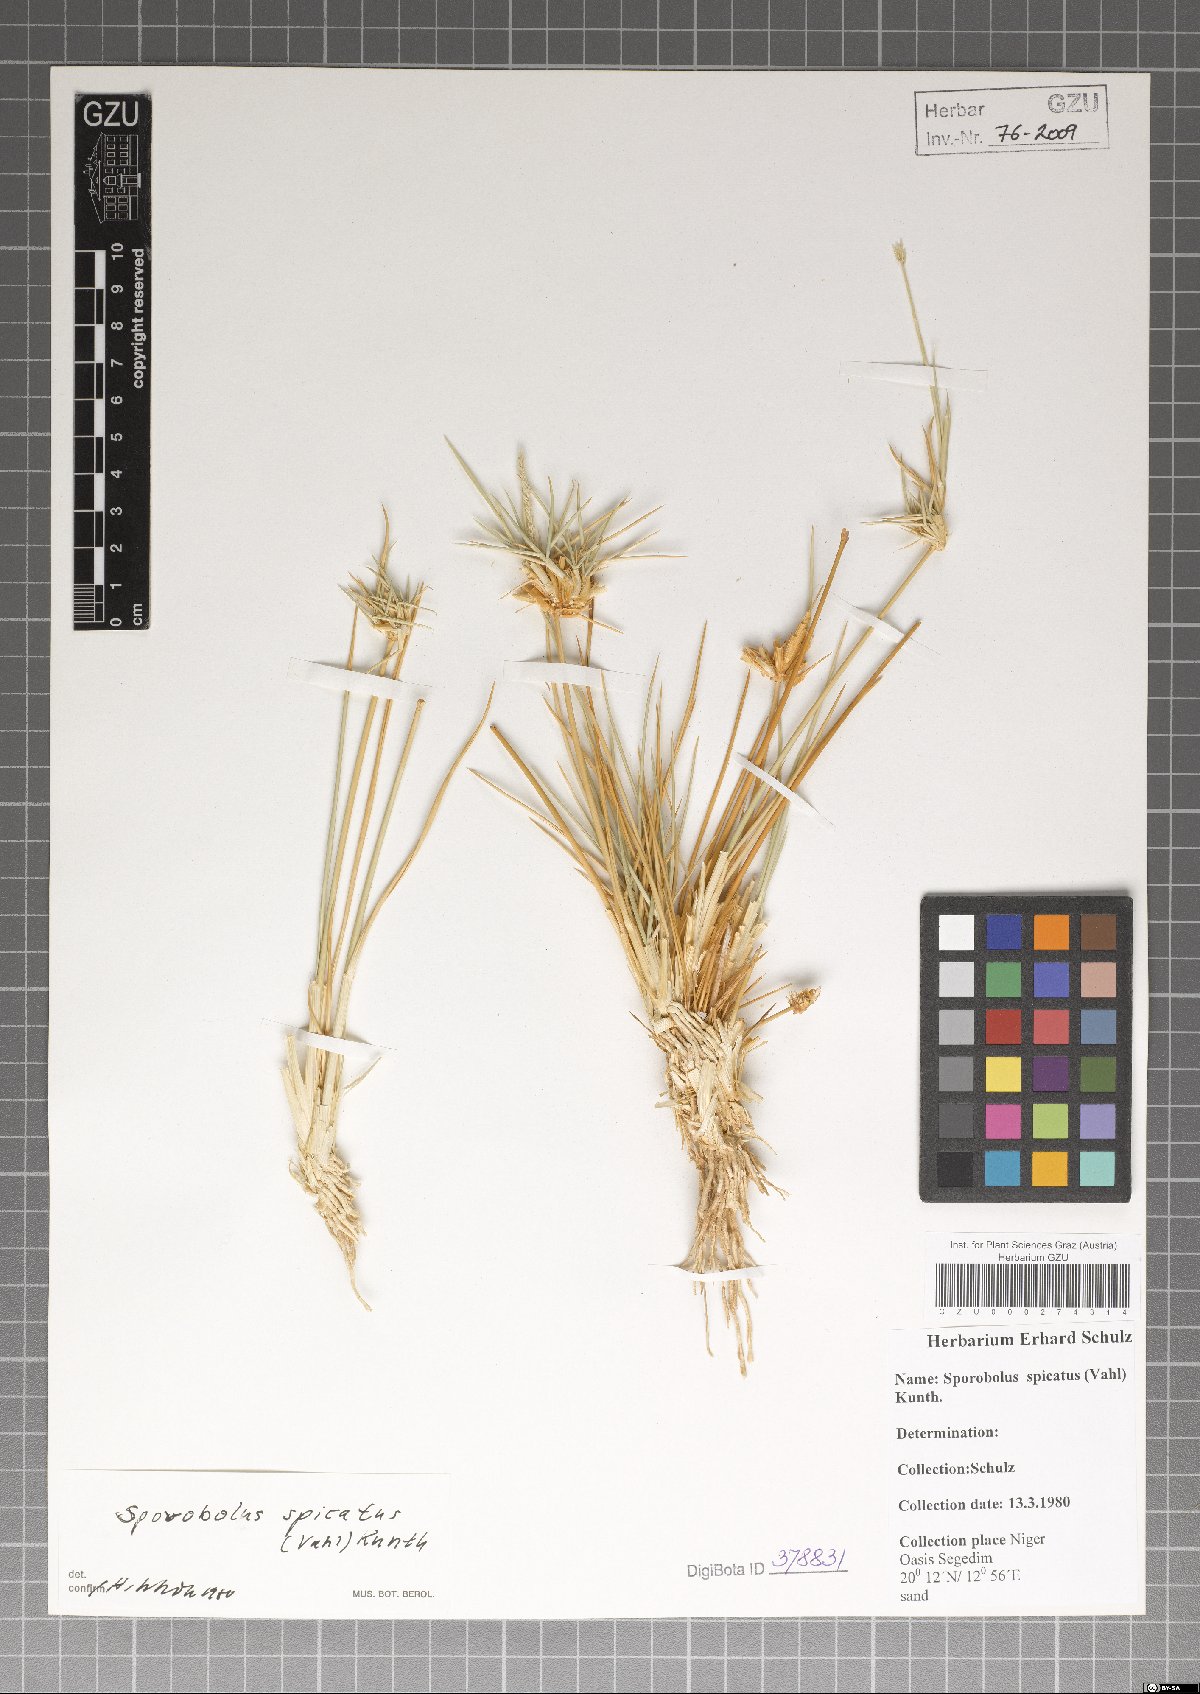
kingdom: Plantae
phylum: Tracheophyta
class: Liliopsida
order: Poales
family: Poaceae
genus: Sporobolus
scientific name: Sporobolus spicatus
